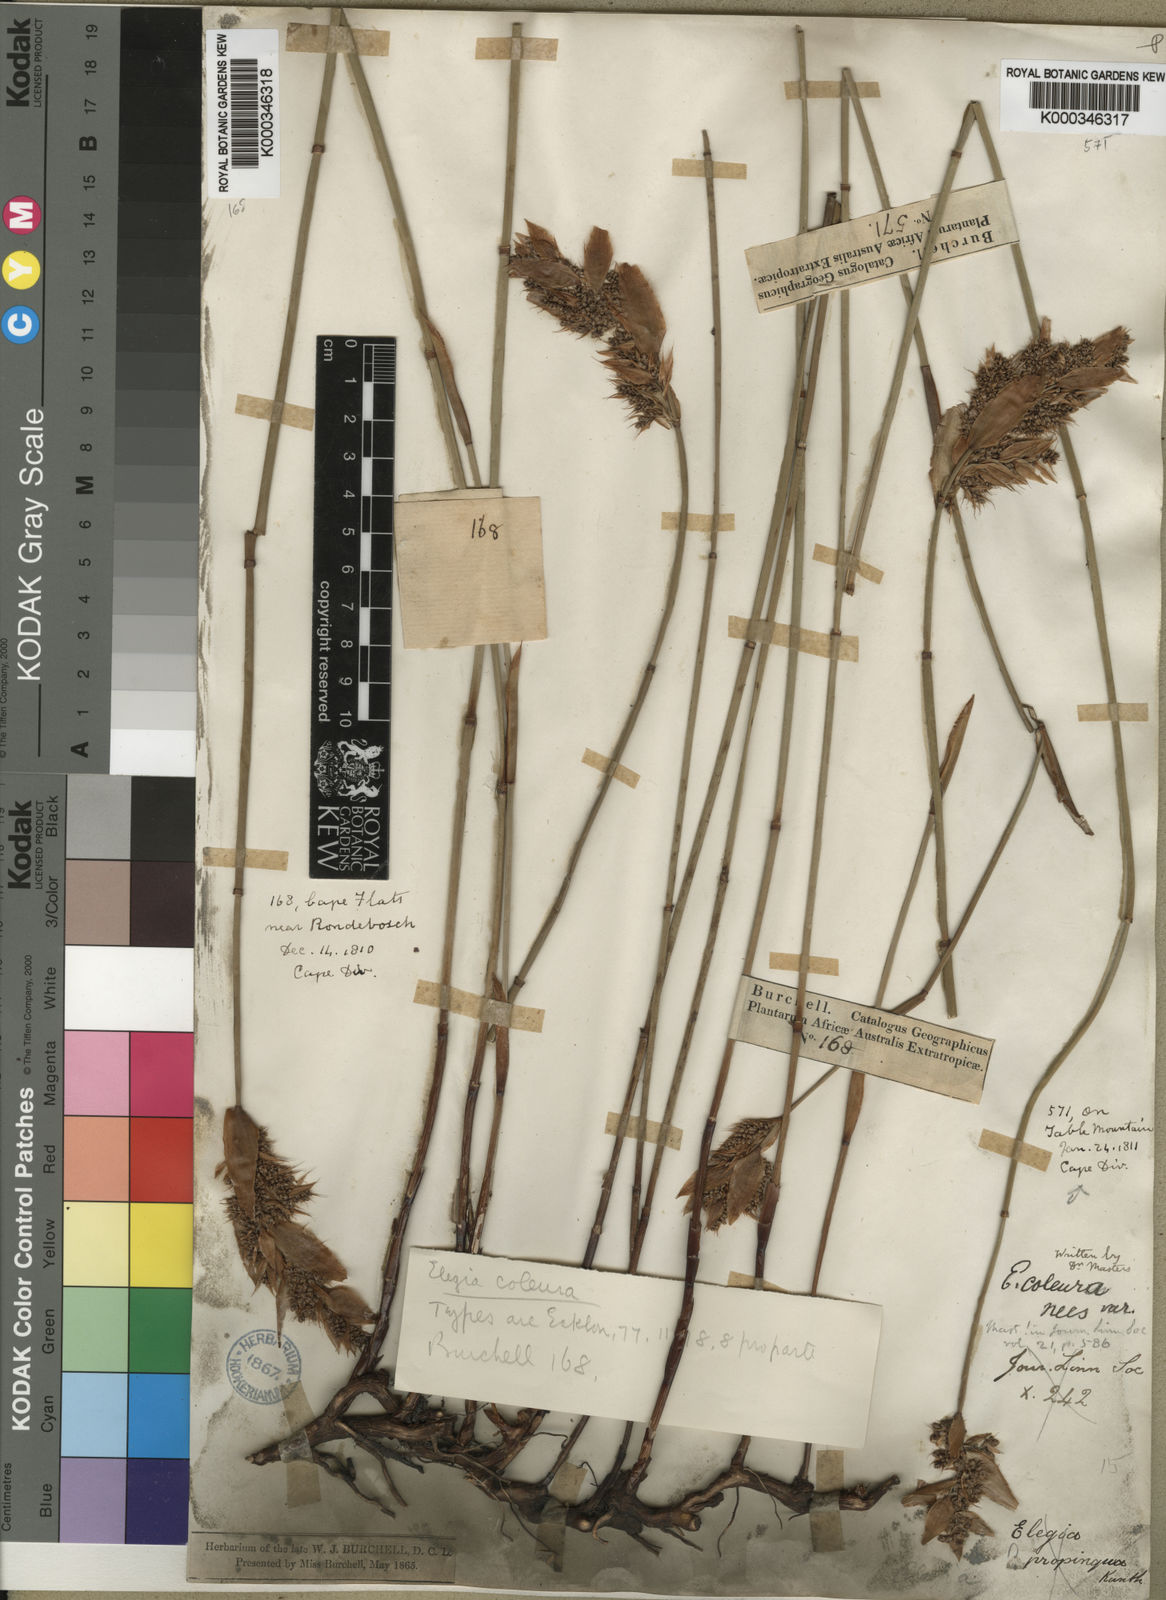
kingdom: Plantae
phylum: Tracheophyta
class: Liliopsida
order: Poales
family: Restionaceae
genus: Elegia
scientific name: Elegia coleura
